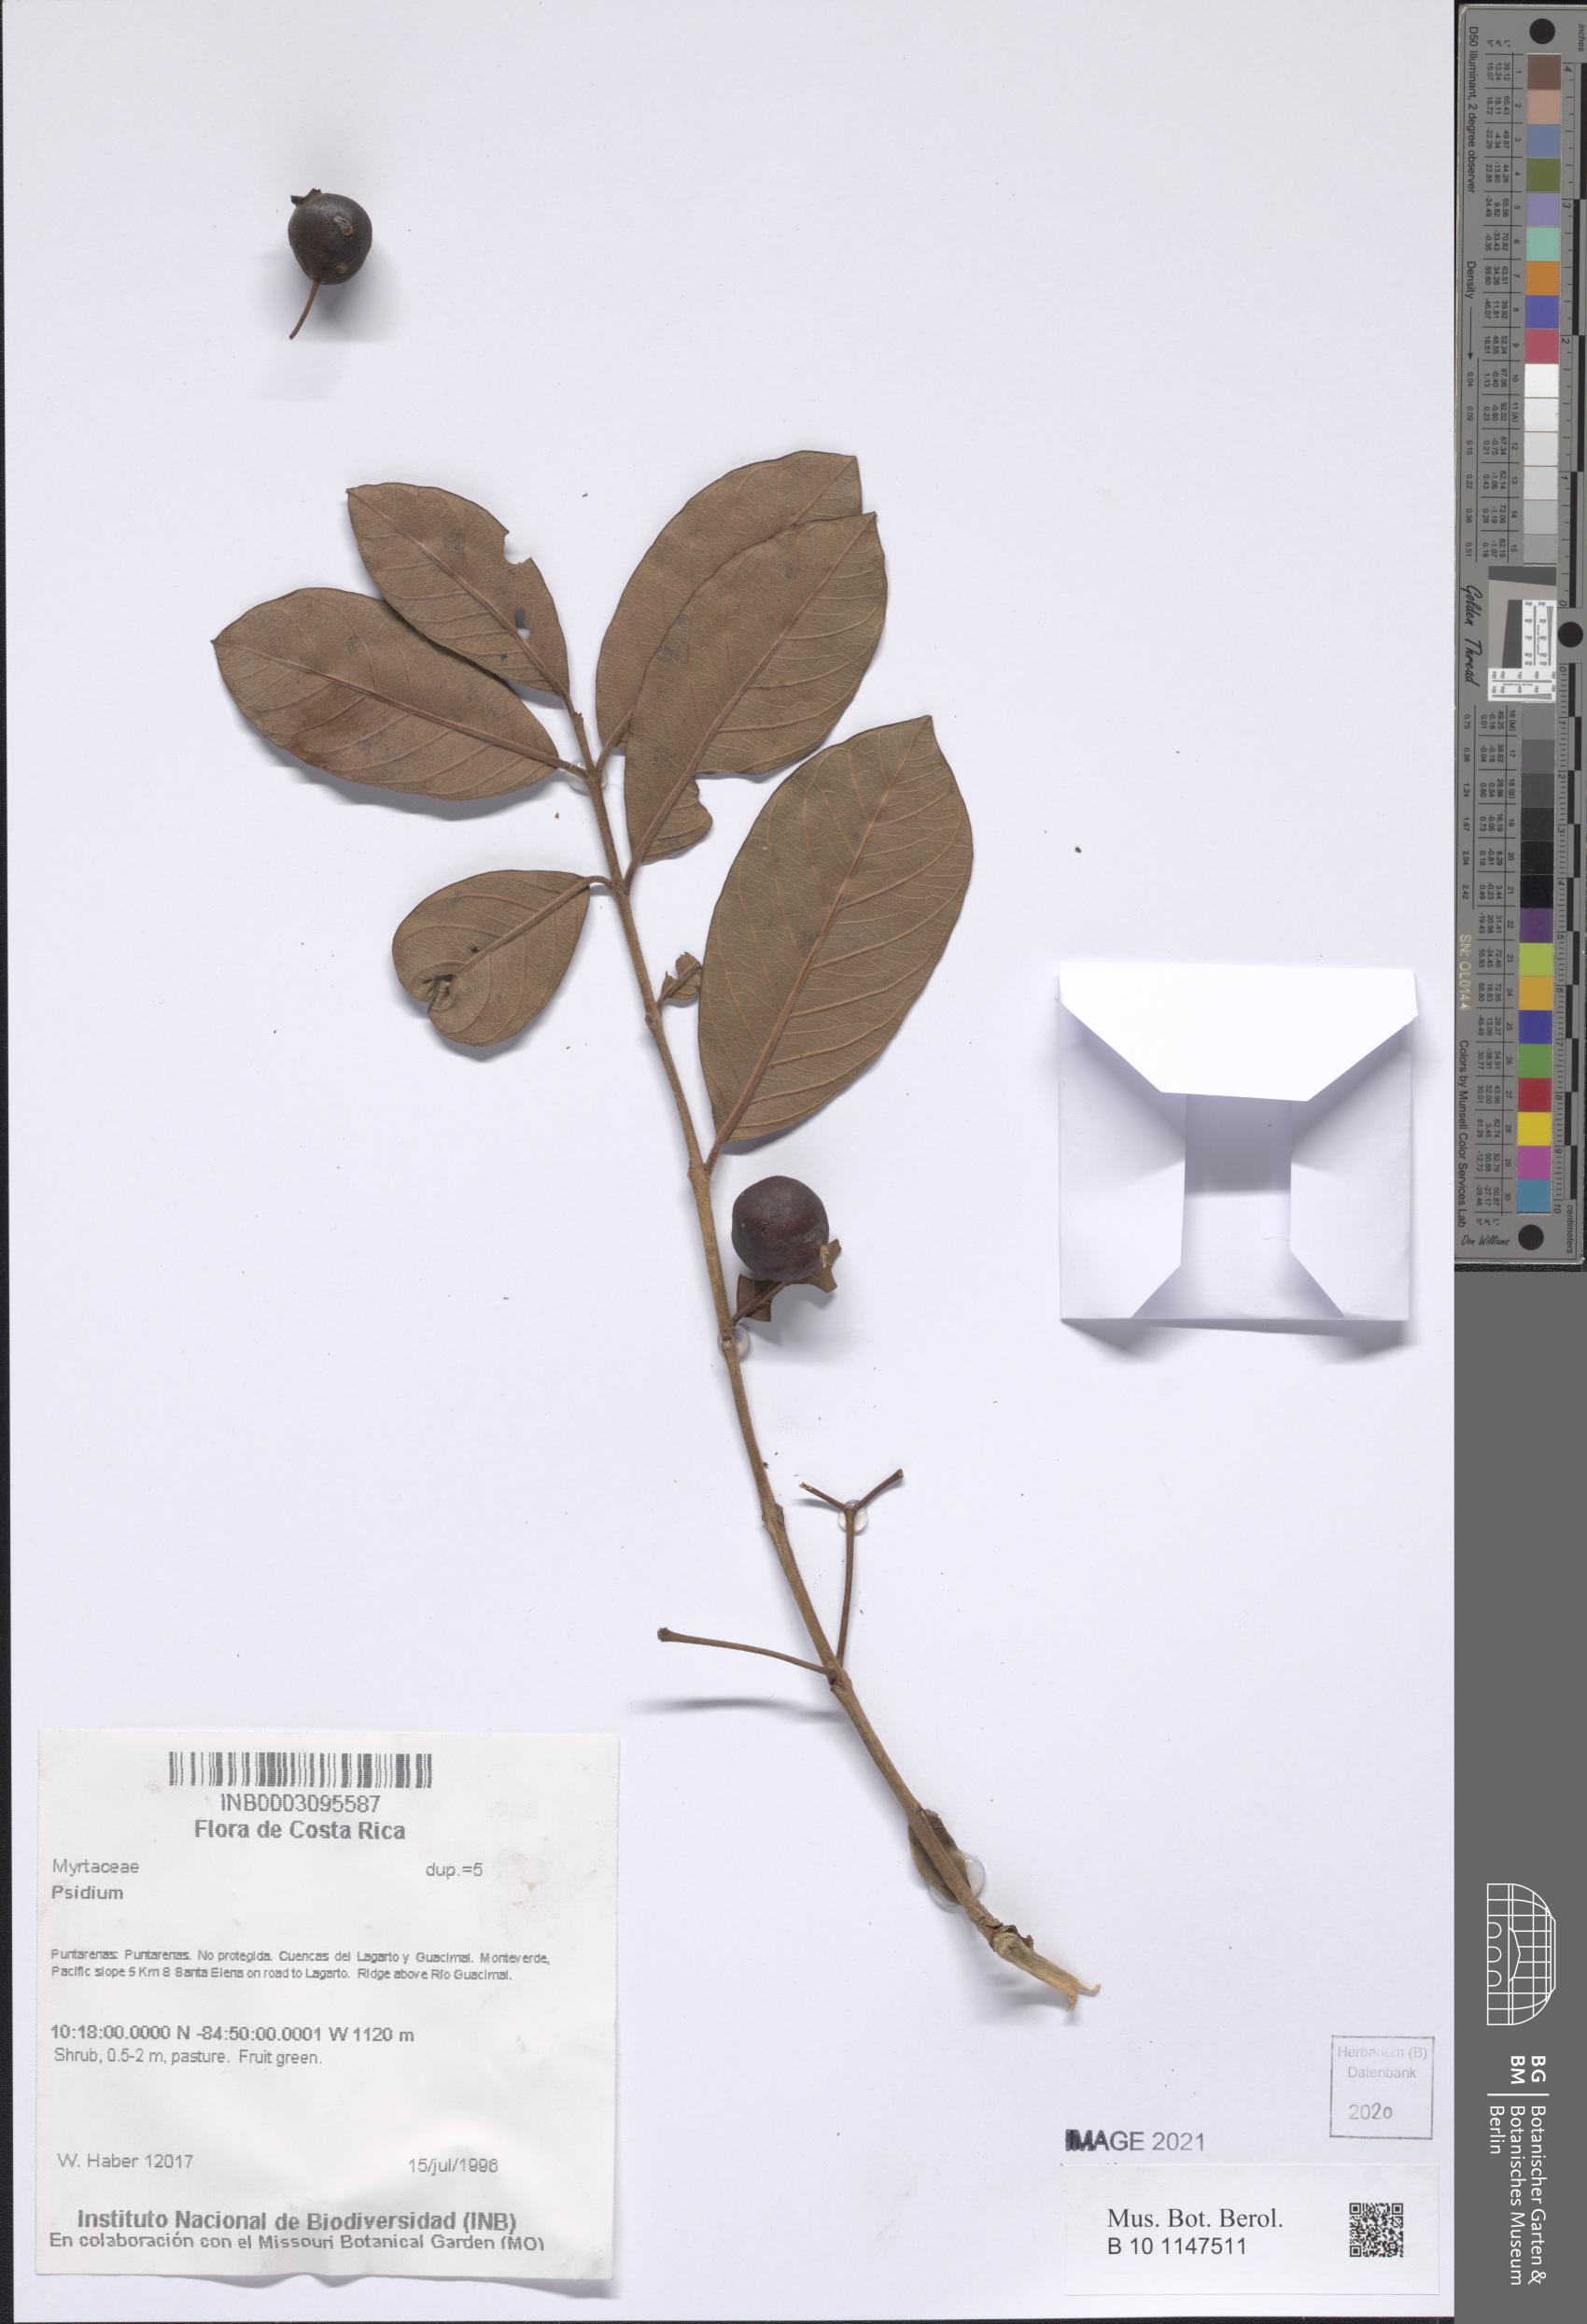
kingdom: Plantae
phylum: Tracheophyta
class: Magnoliopsida
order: Myrtales
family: Myrtaceae
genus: Psidium
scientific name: Psidium
